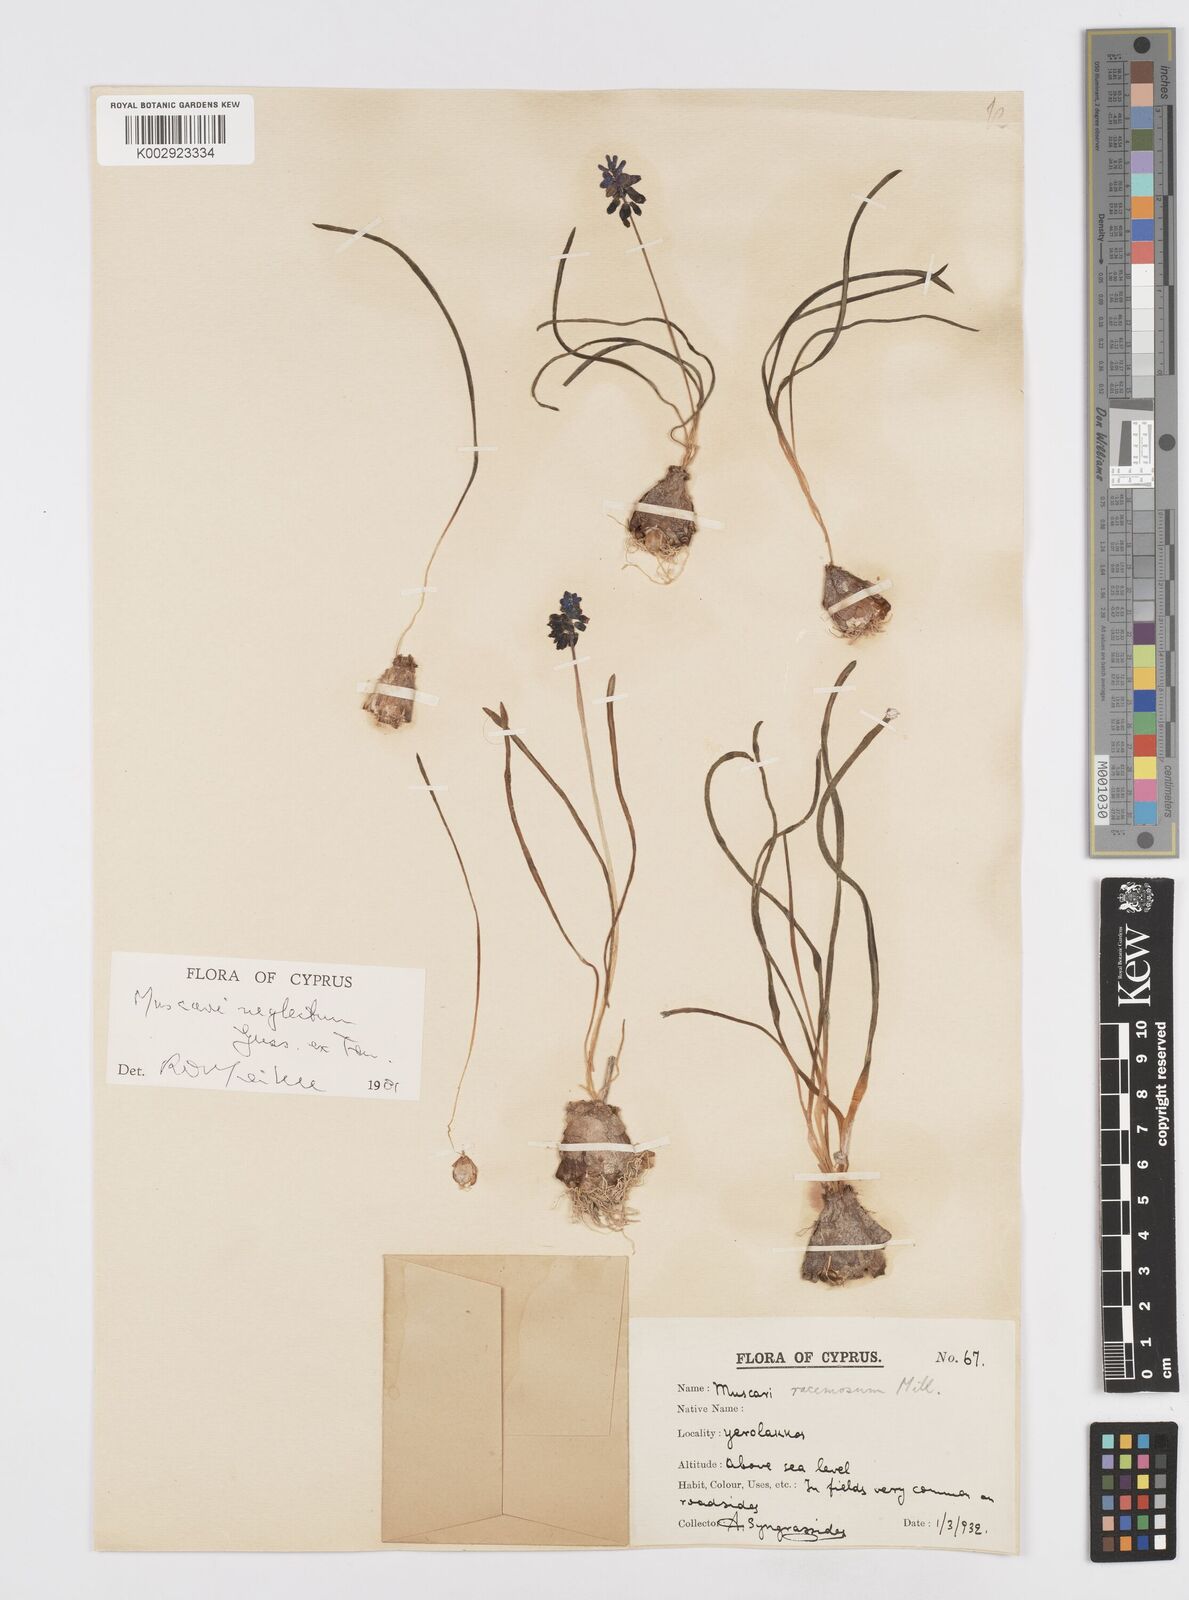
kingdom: Plantae
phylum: Tracheophyta
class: Liliopsida
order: Asparagales
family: Asparagaceae
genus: Muscari
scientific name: Muscari neglectum
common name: Grape-hyacinth
